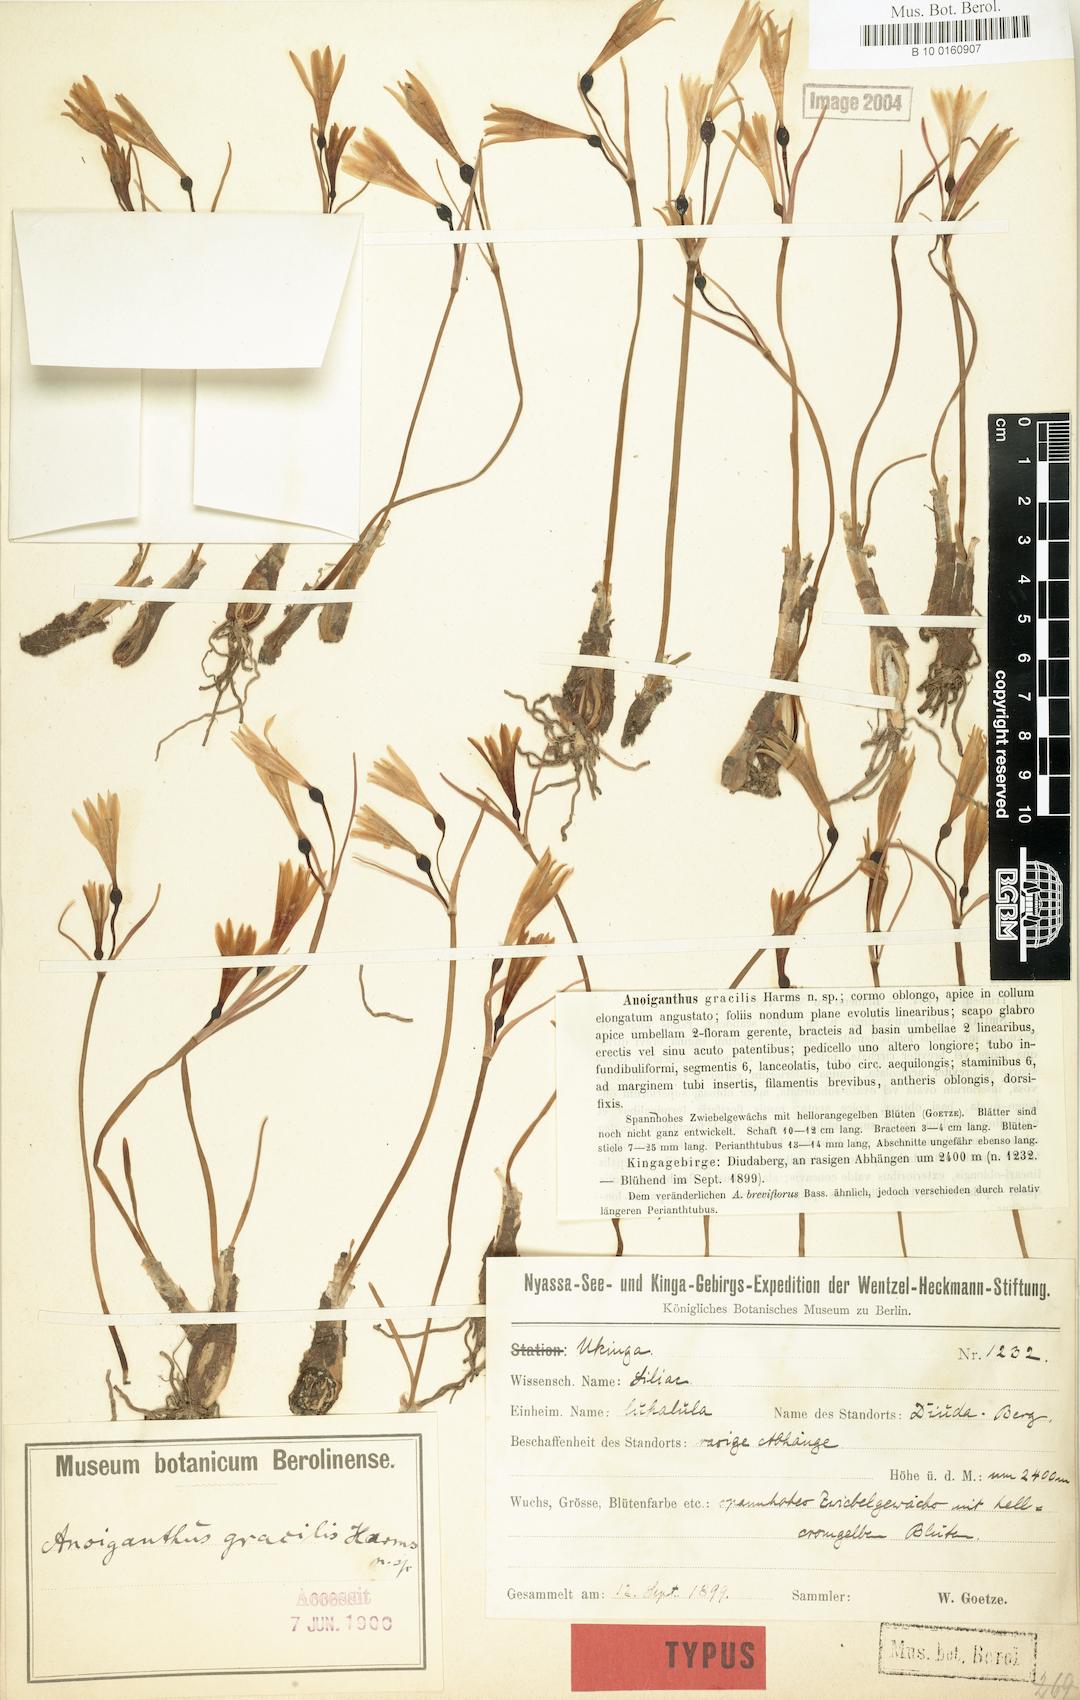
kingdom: Plantae
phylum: Tracheophyta
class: Liliopsida
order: Asparagales
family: Amaryllidaceae
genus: Cyrtanthus
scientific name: Cyrtanthus breviflorus
